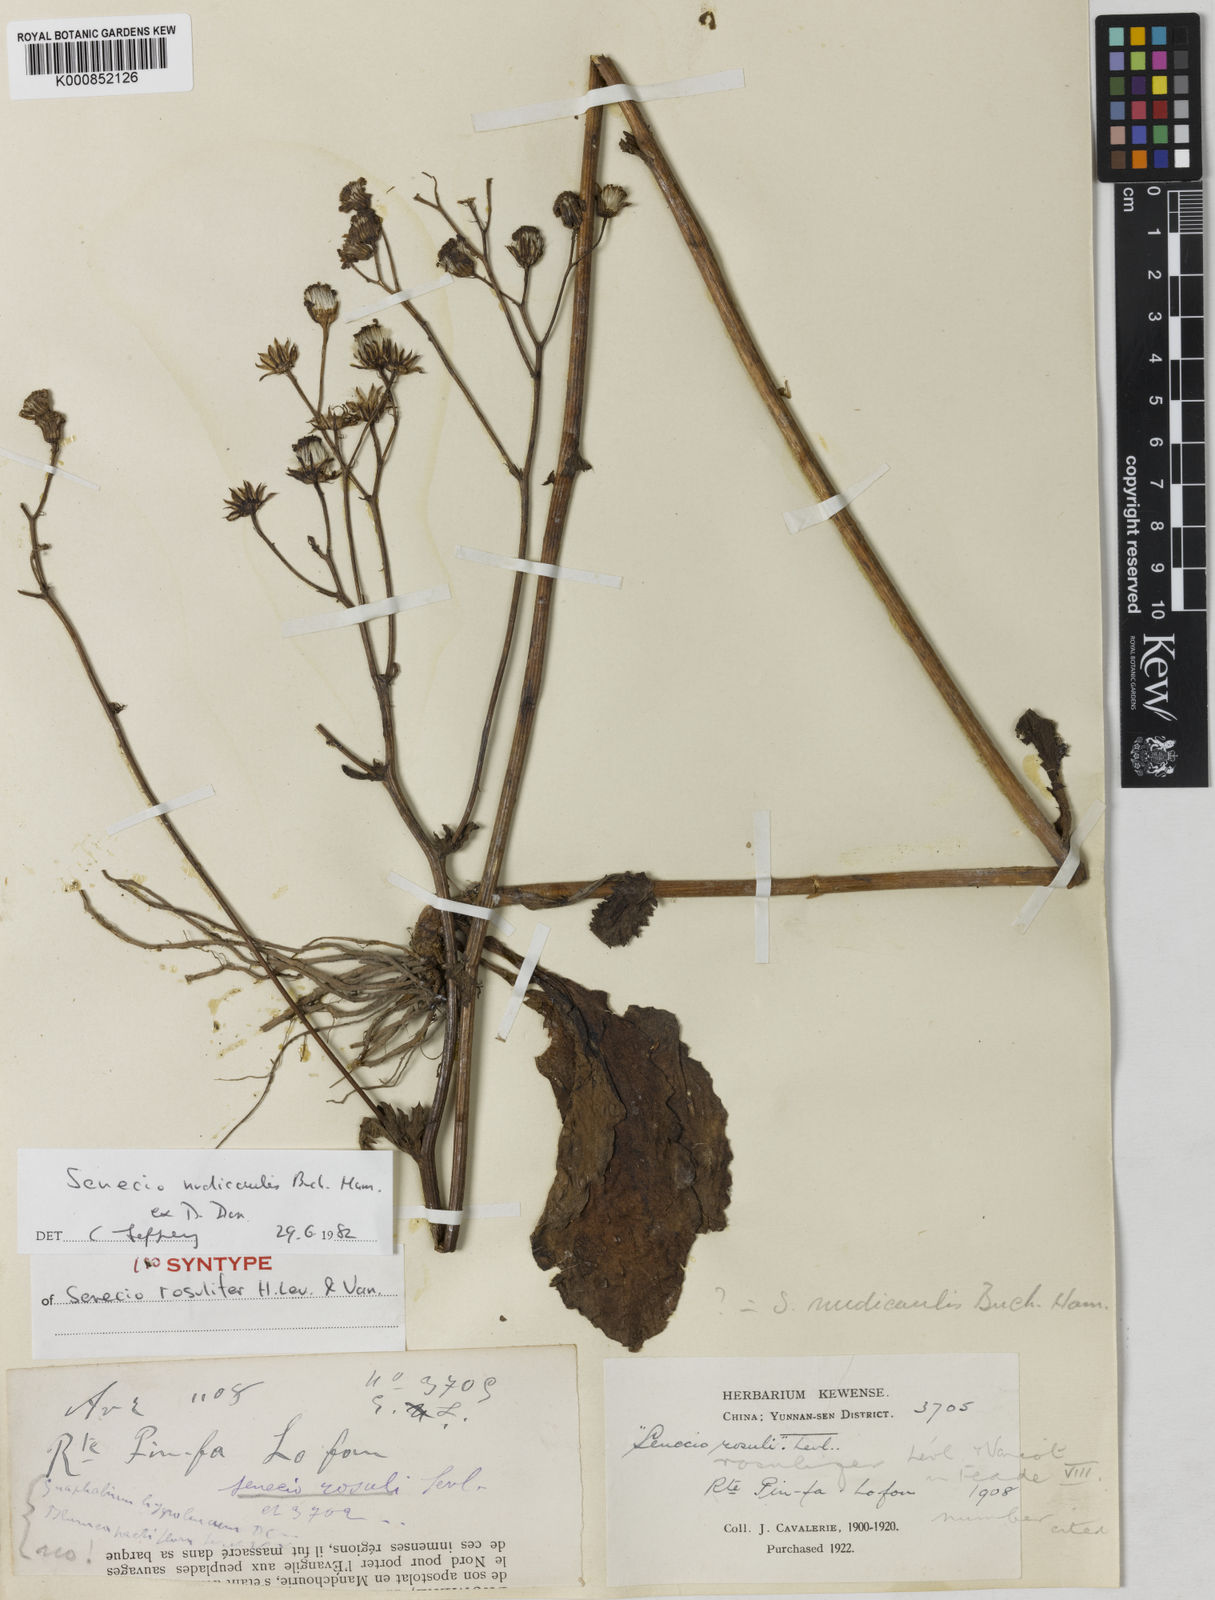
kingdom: Plantae
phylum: Tracheophyta
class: Magnoliopsida
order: Asterales
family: Asteraceae
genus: Jacobaea
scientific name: Jacobaea nudicaulis
